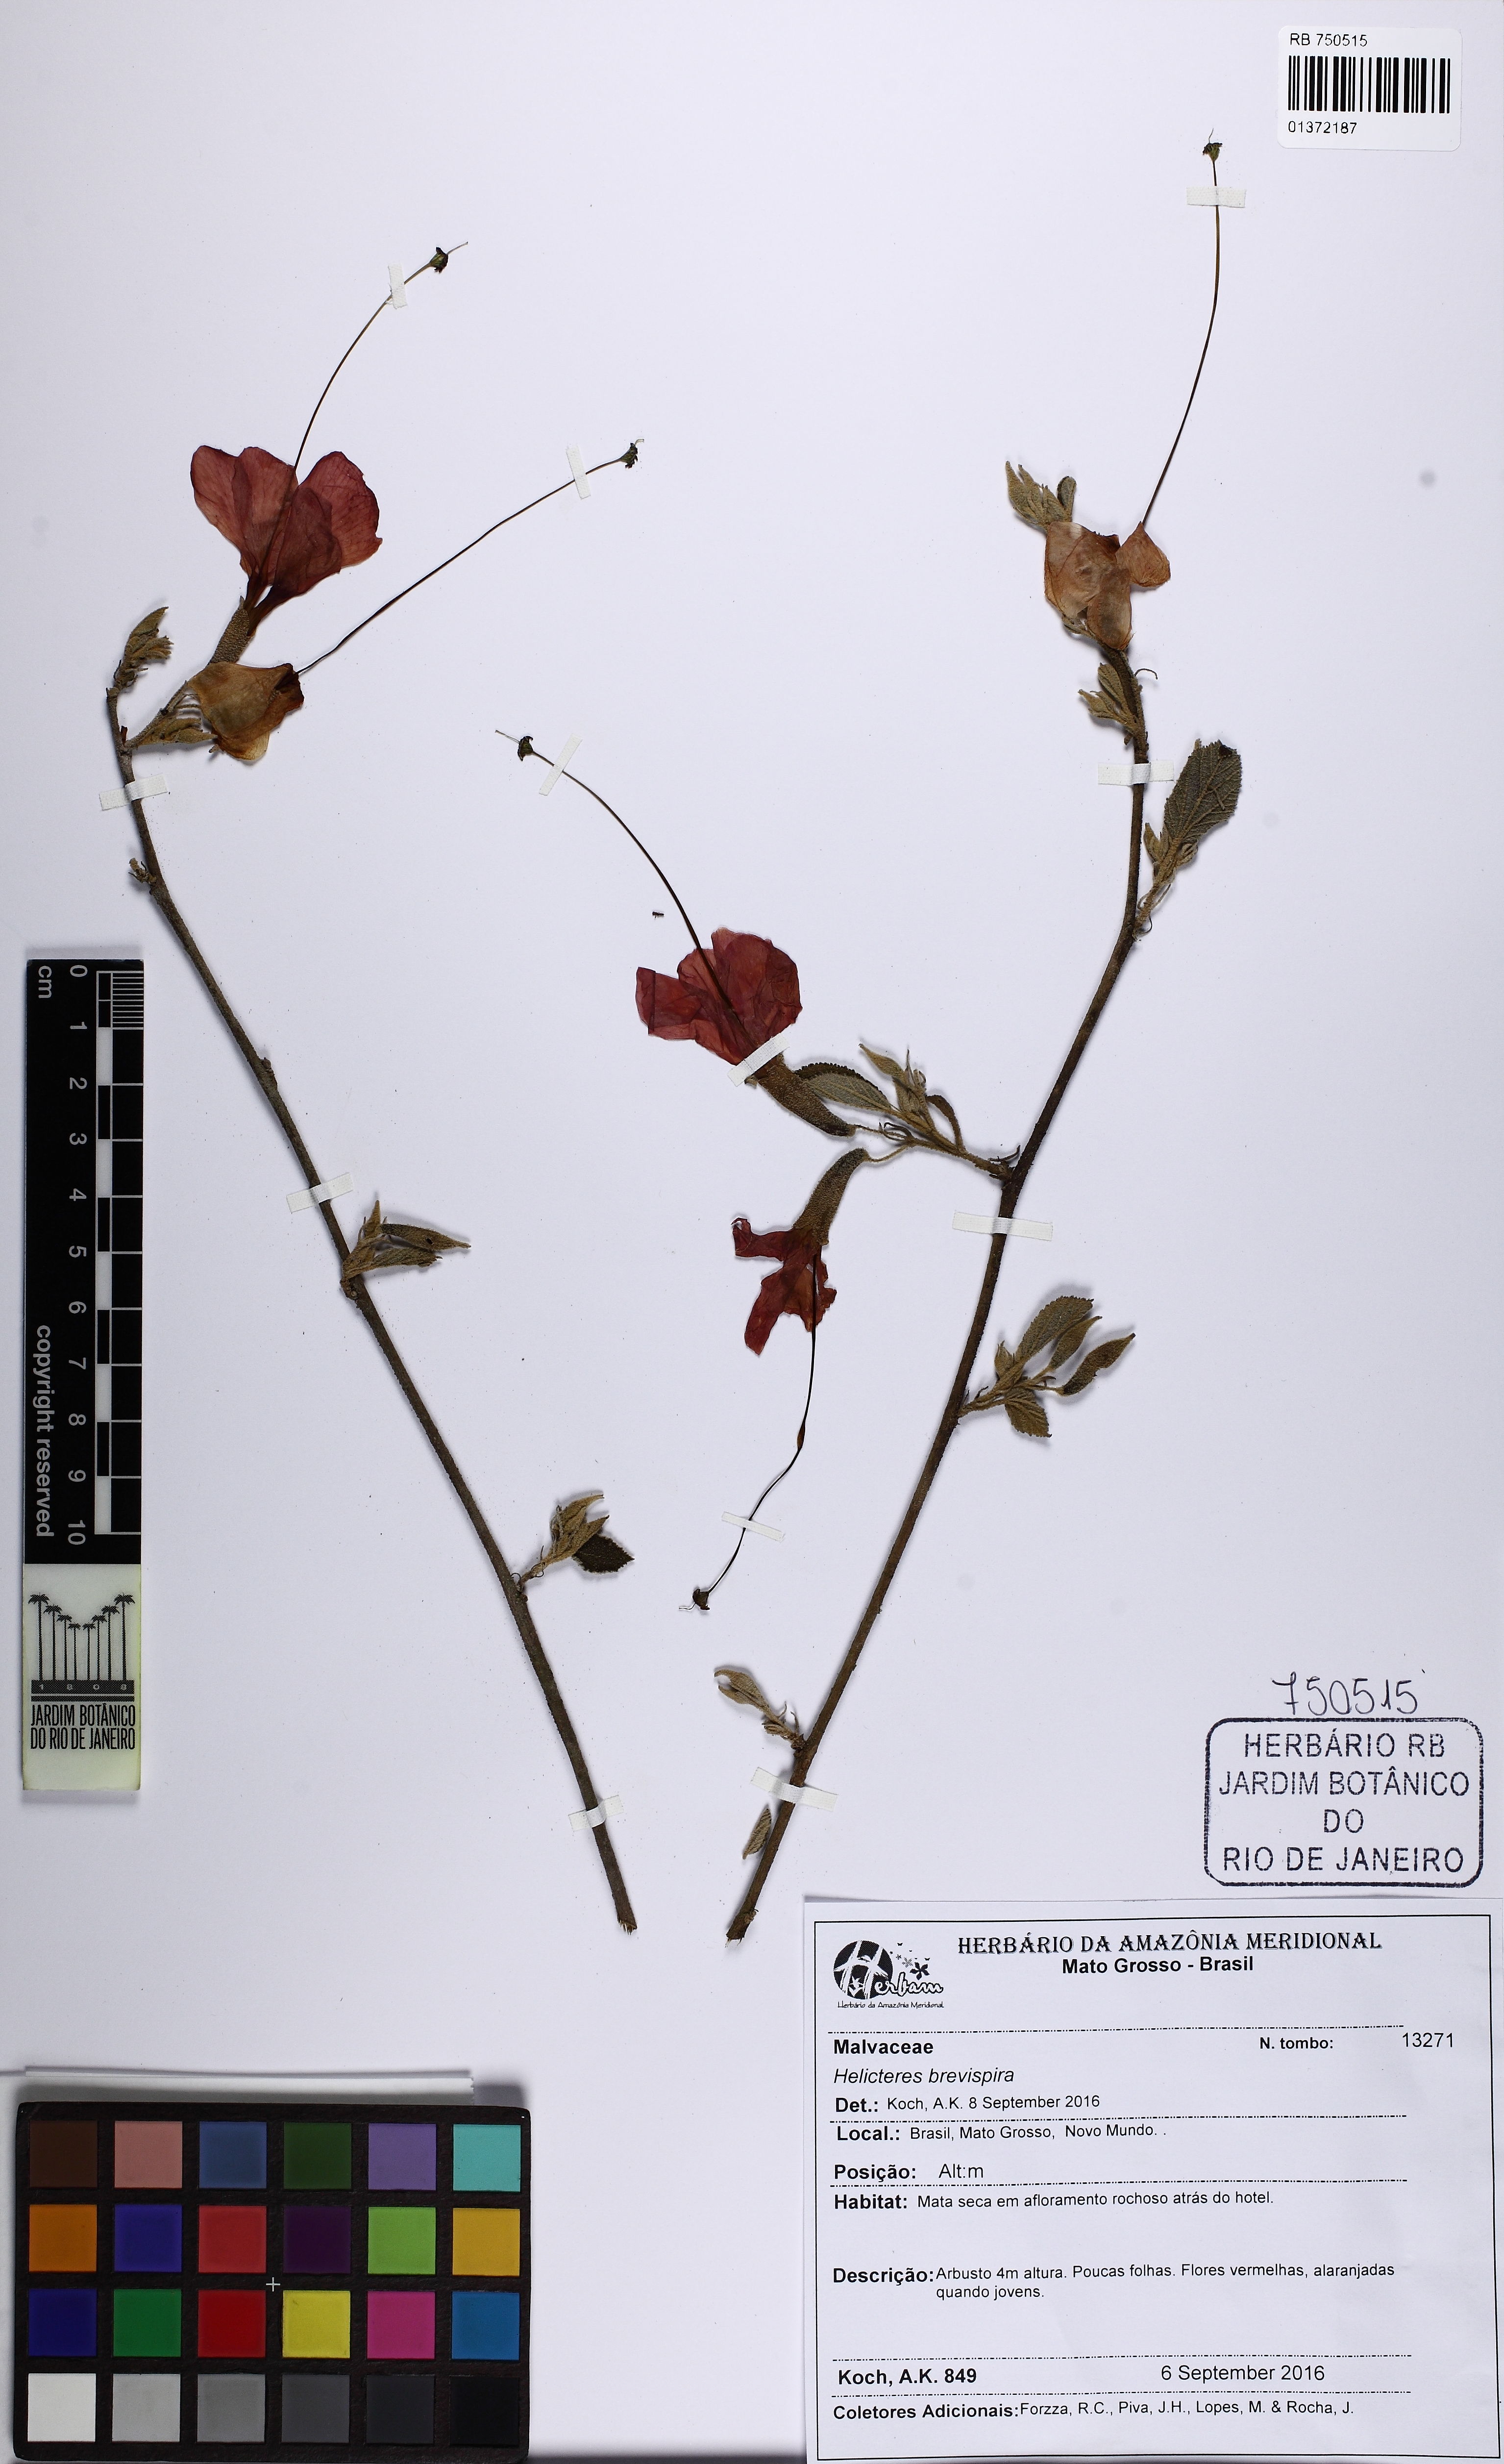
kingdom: Plantae
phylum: Tracheophyta
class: Magnoliopsida
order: Malvales
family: Malvaceae
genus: Helicteres
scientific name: Helicteres brevispira
